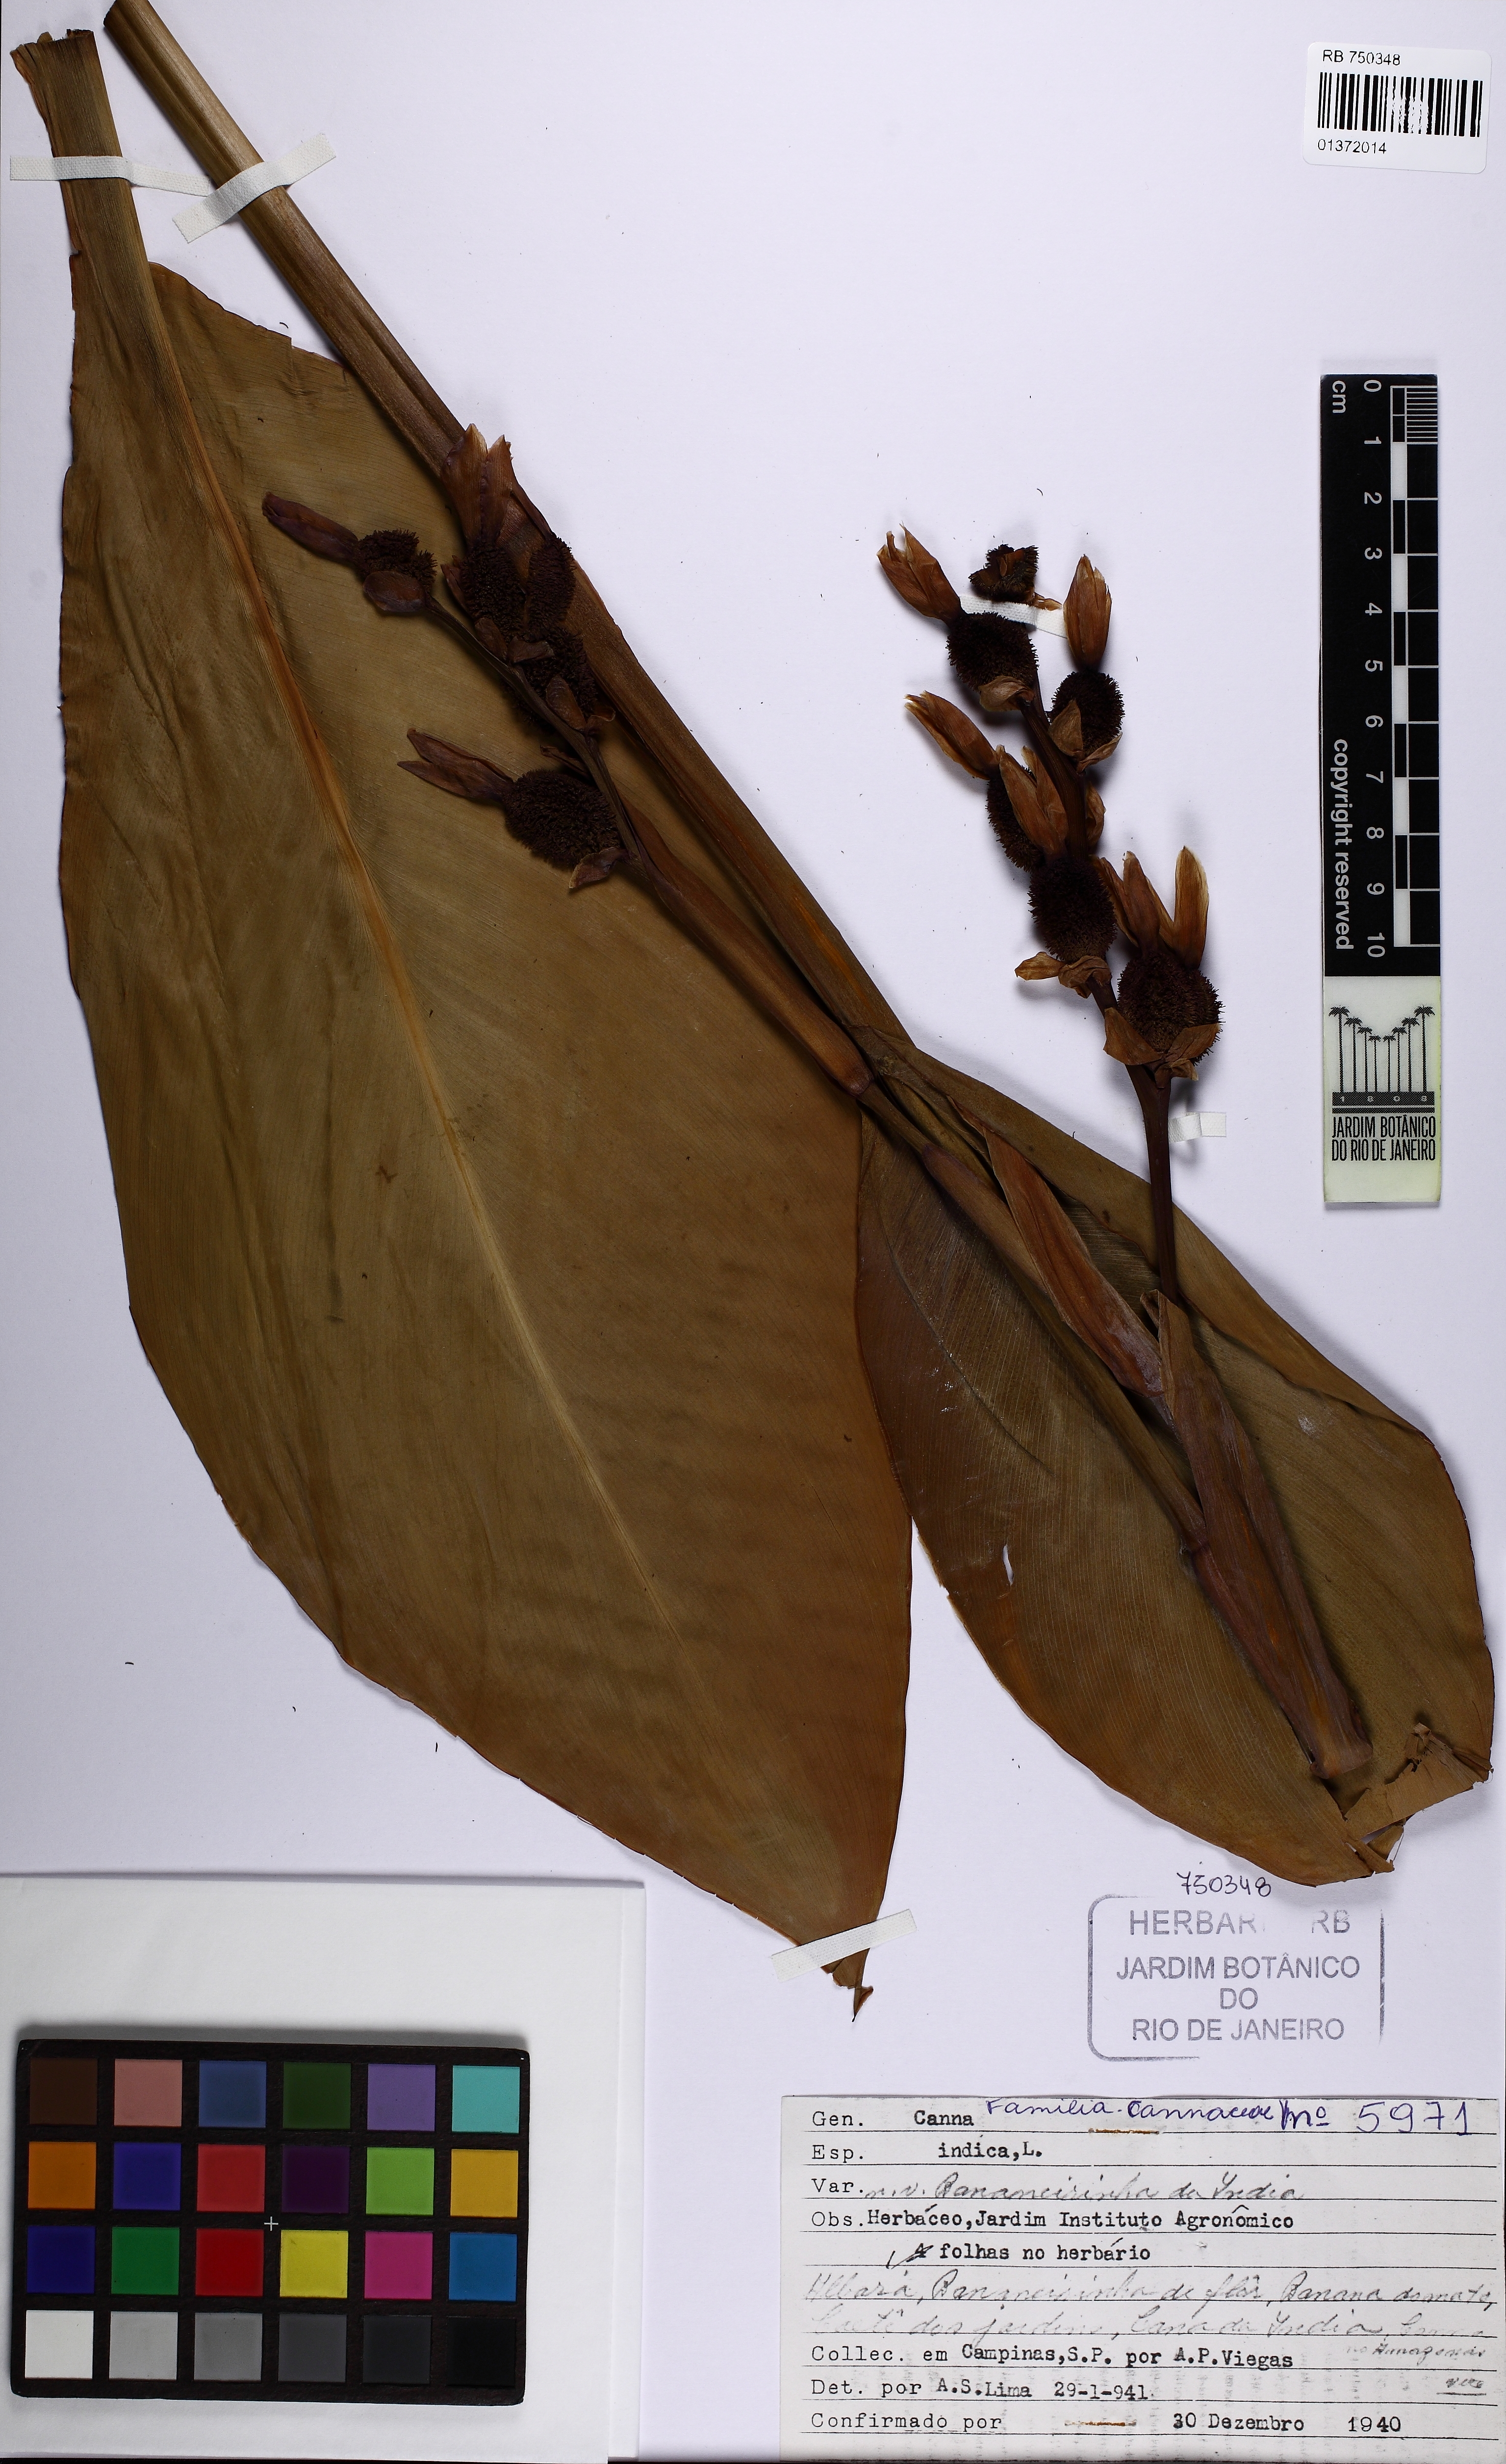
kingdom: Plantae
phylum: Tracheophyta
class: Liliopsida
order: Zingiberales
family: Cannaceae
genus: Canna
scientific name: Canna indica
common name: Indian shot
